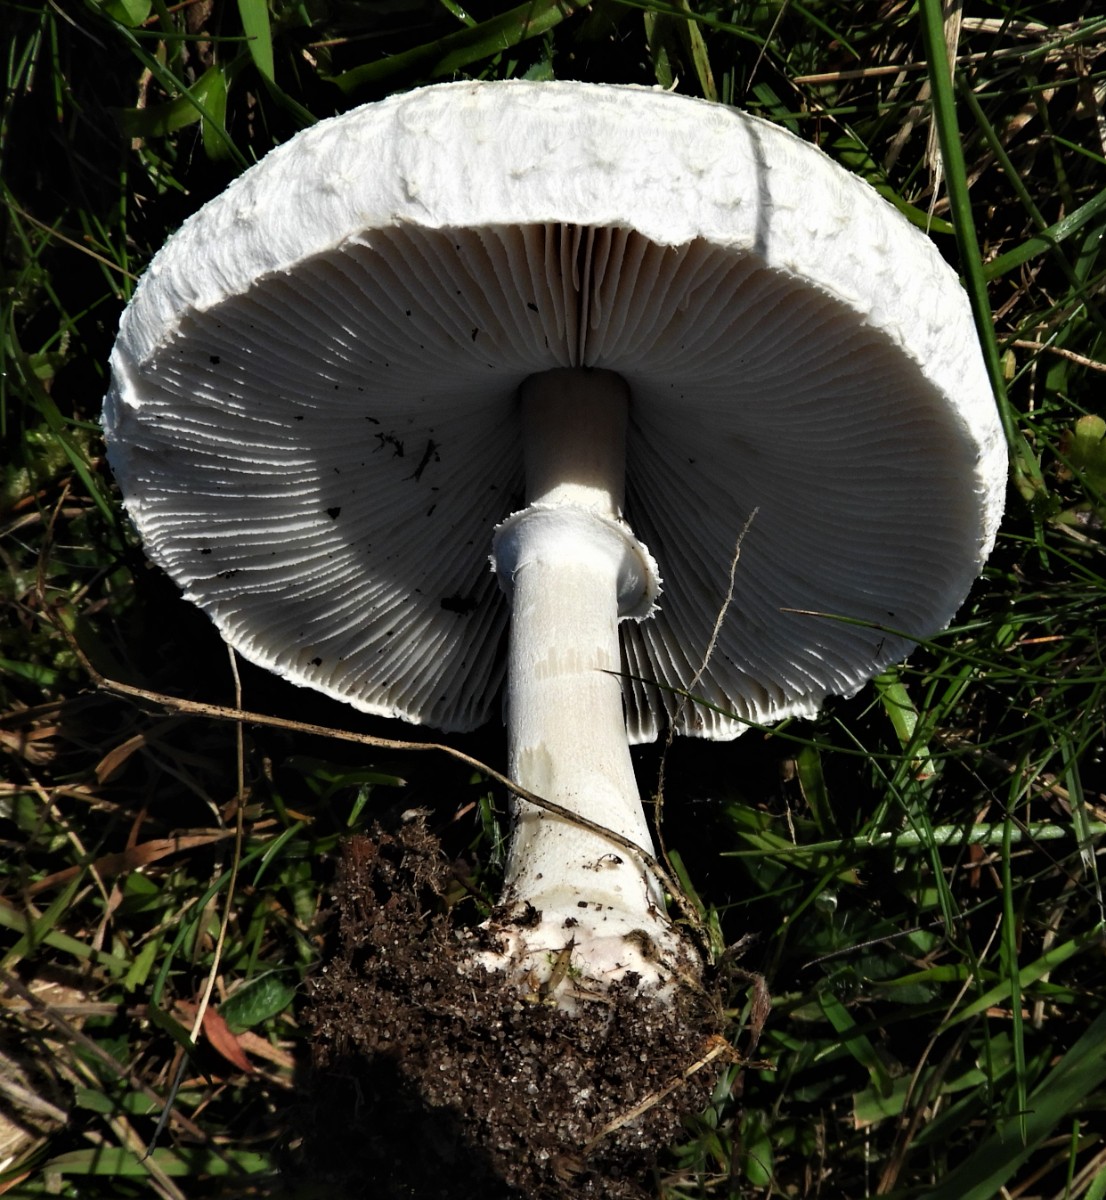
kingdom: Fungi
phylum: Basidiomycota
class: Agaricomycetes
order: Agaricales
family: Agaricaceae
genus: Leucoagaricus
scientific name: Leucoagaricus leucothites
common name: rosabladet silkehat
